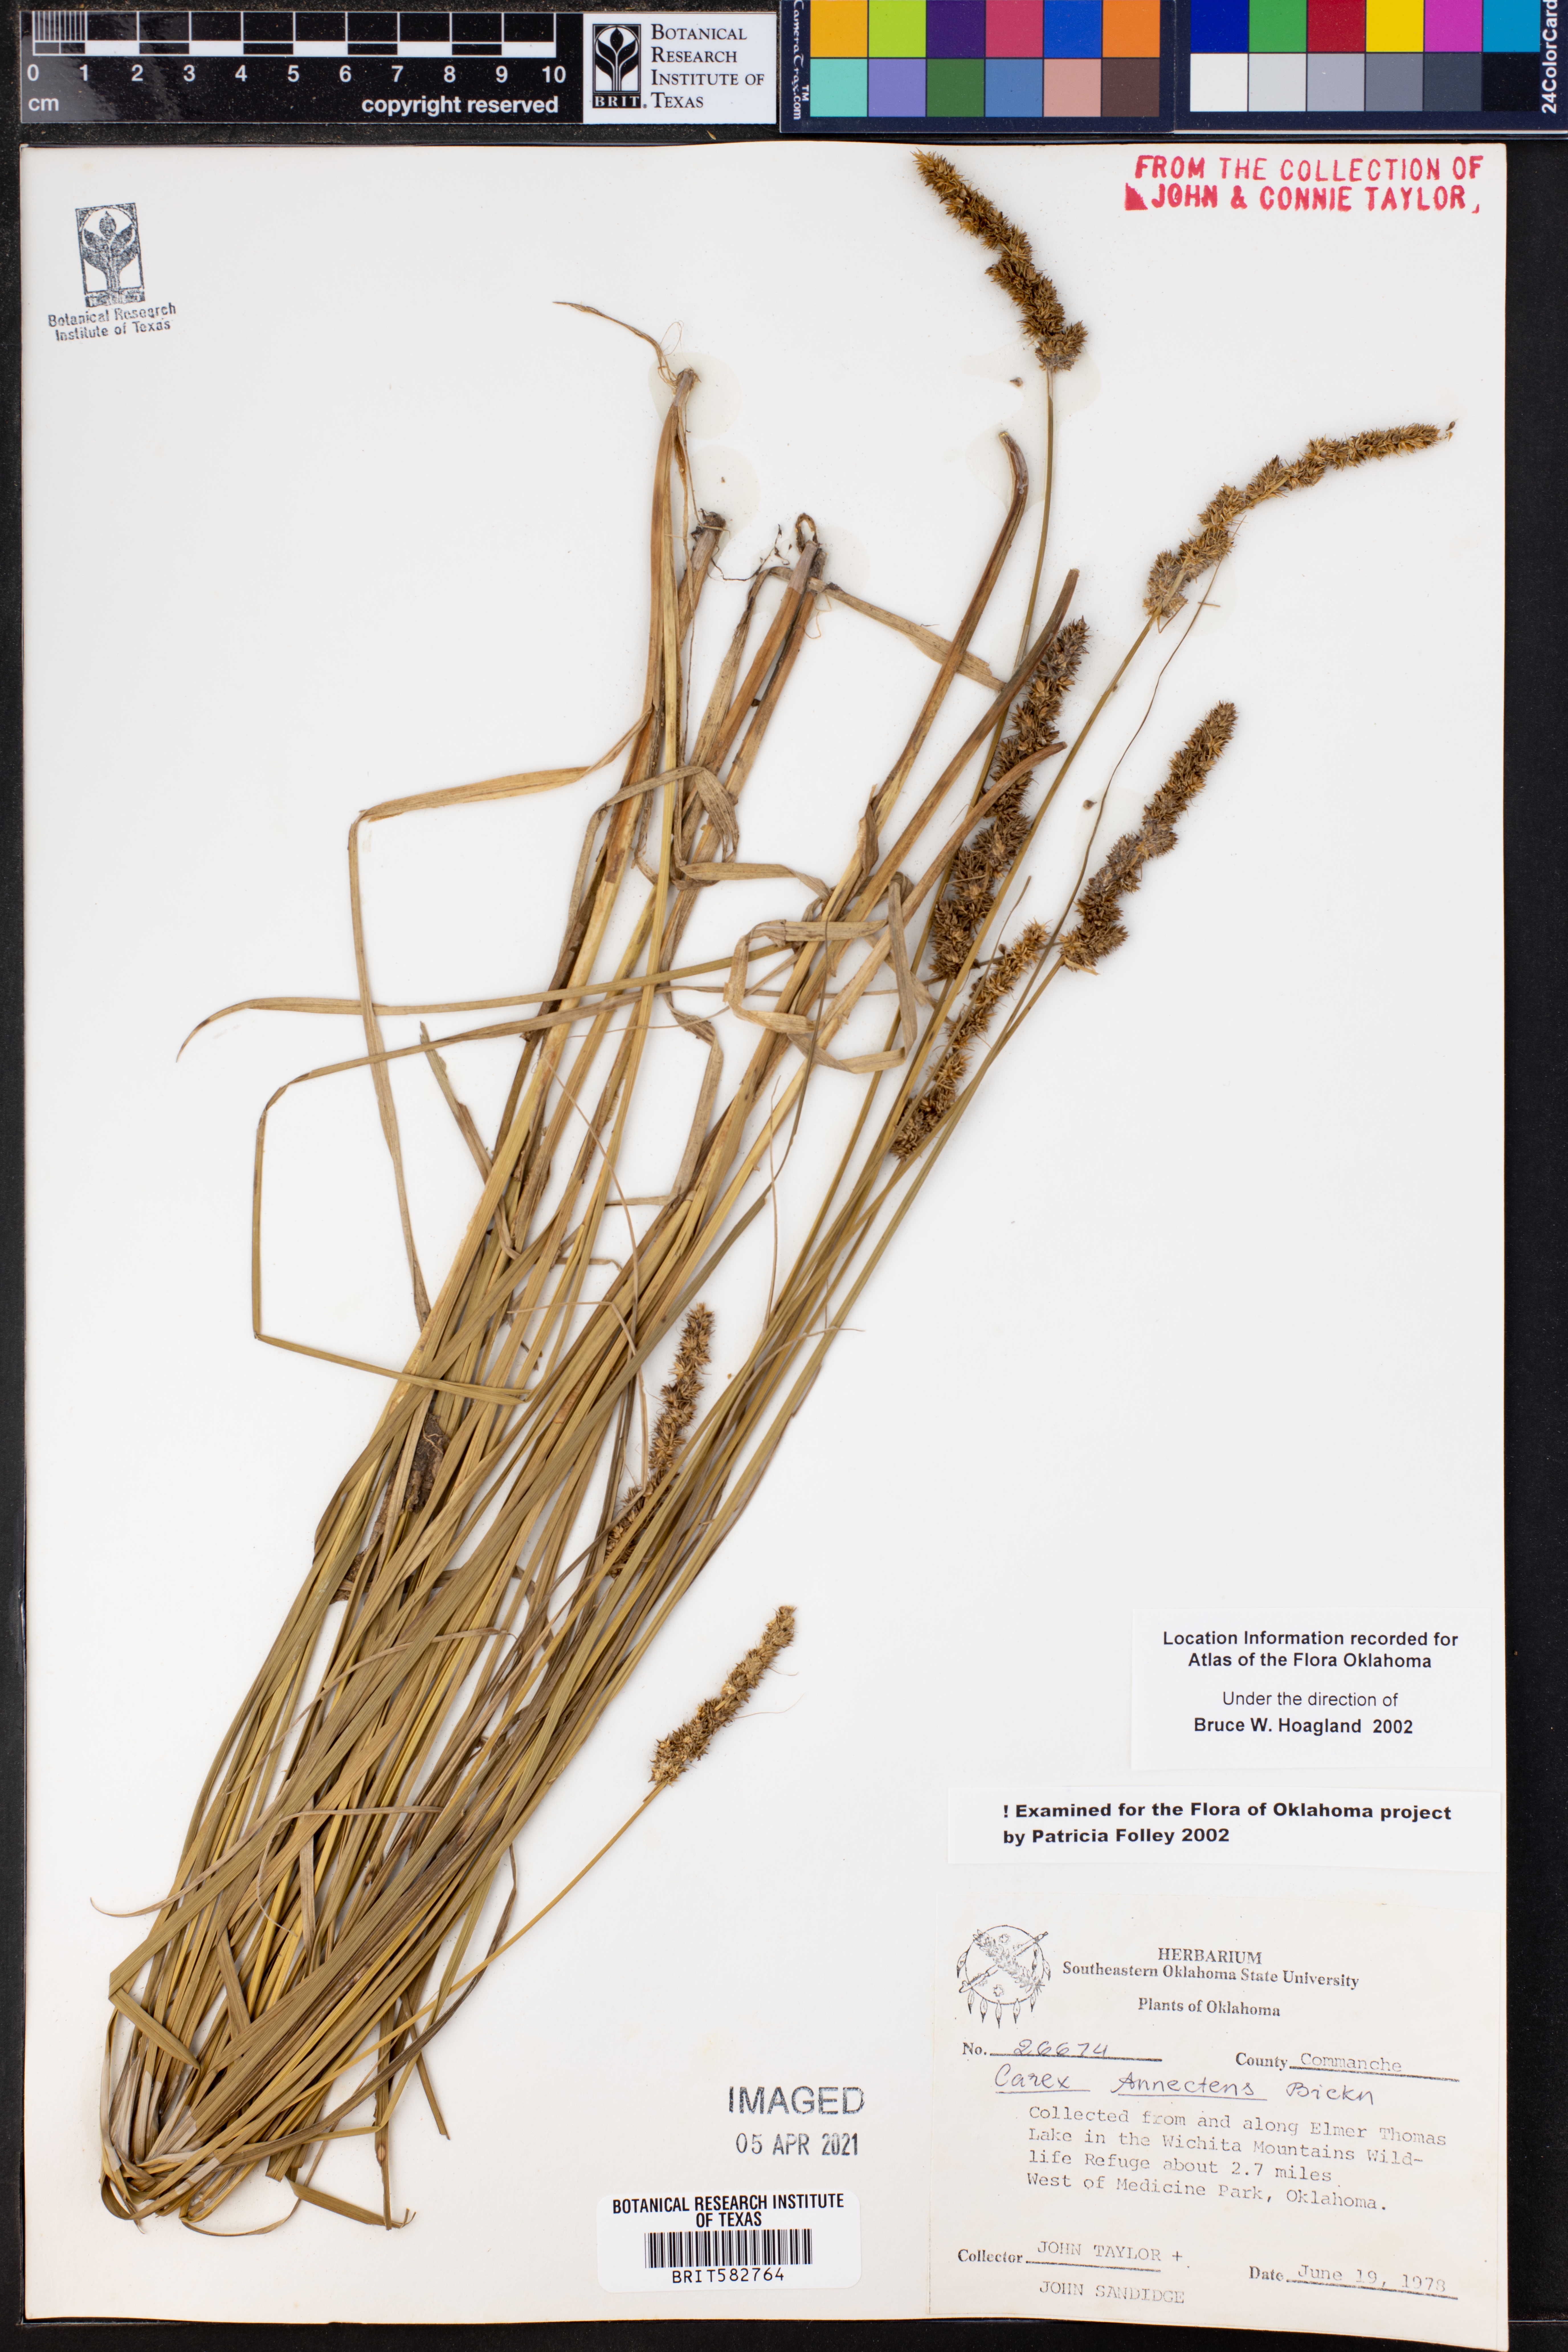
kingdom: Plantae
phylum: Tracheophyta
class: Liliopsida
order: Poales
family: Cyperaceae
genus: Carex
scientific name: Carex annectens
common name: Large fox sedge
